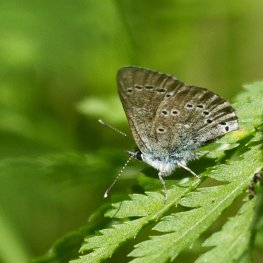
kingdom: Animalia
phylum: Arthropoda
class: Insecta
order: Lepidoptera
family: Lycaenidae
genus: Glaucopsyche
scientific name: Glaucopsyche lygdamus
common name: Silvery Blue
